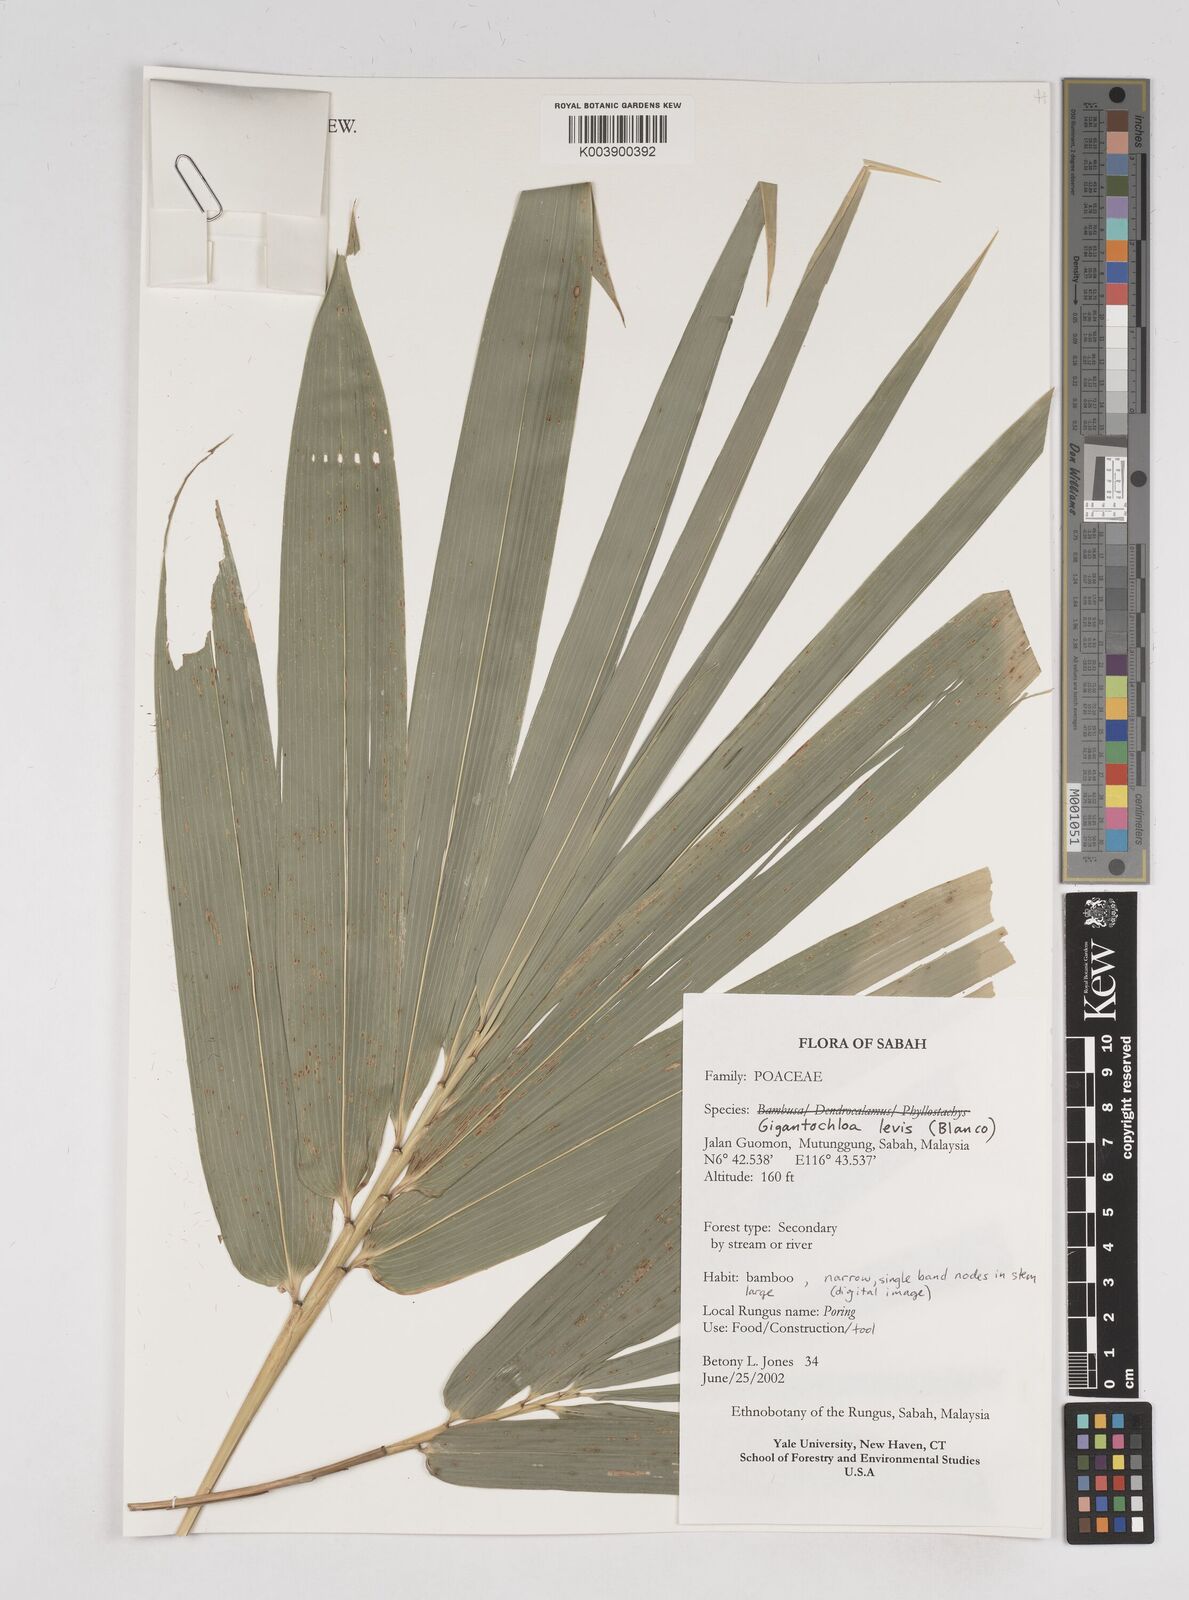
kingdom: Plantae
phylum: Tracheophyta
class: Liliopsida
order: Poales
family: Poaceae
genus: Gigantochloa
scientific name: Gigantochloa levis
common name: Smooth-shoot gigantochloa
